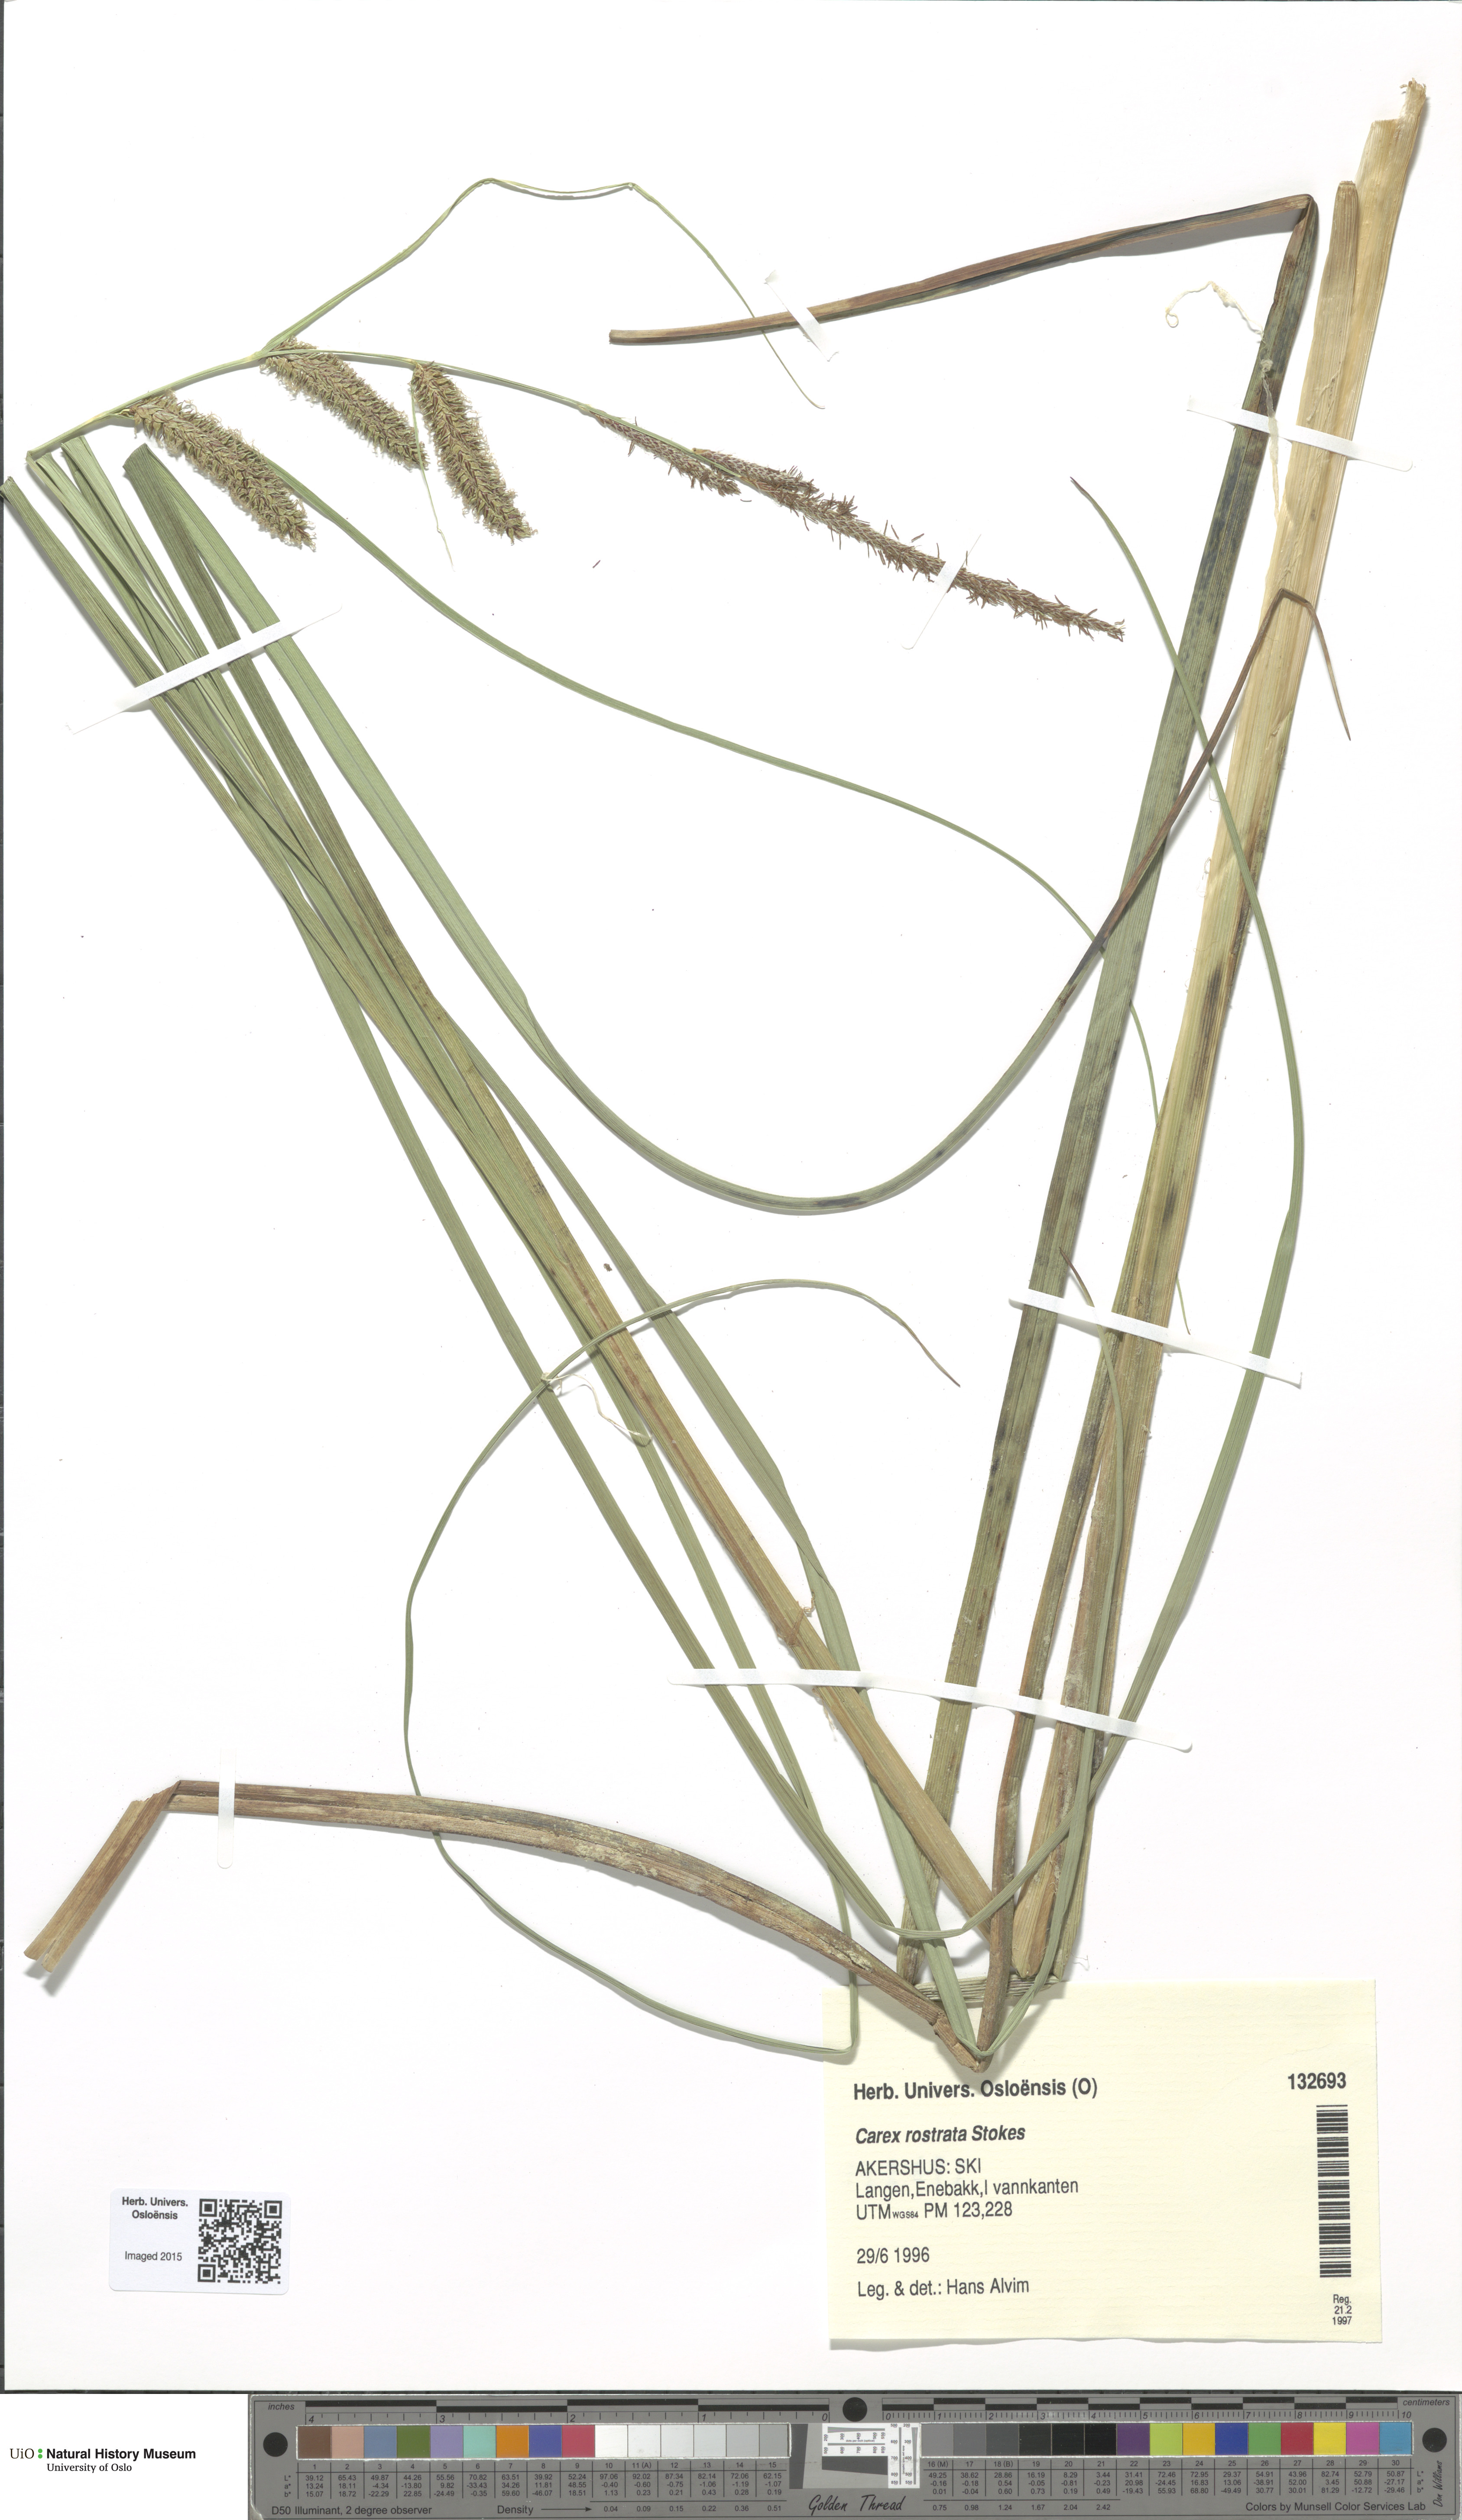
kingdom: Plantae
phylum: Tracheophyta
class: Liliopsida
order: Poales
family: Cyperaceae
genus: Carex
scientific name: Carex rostrata
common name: Bottle sedge
